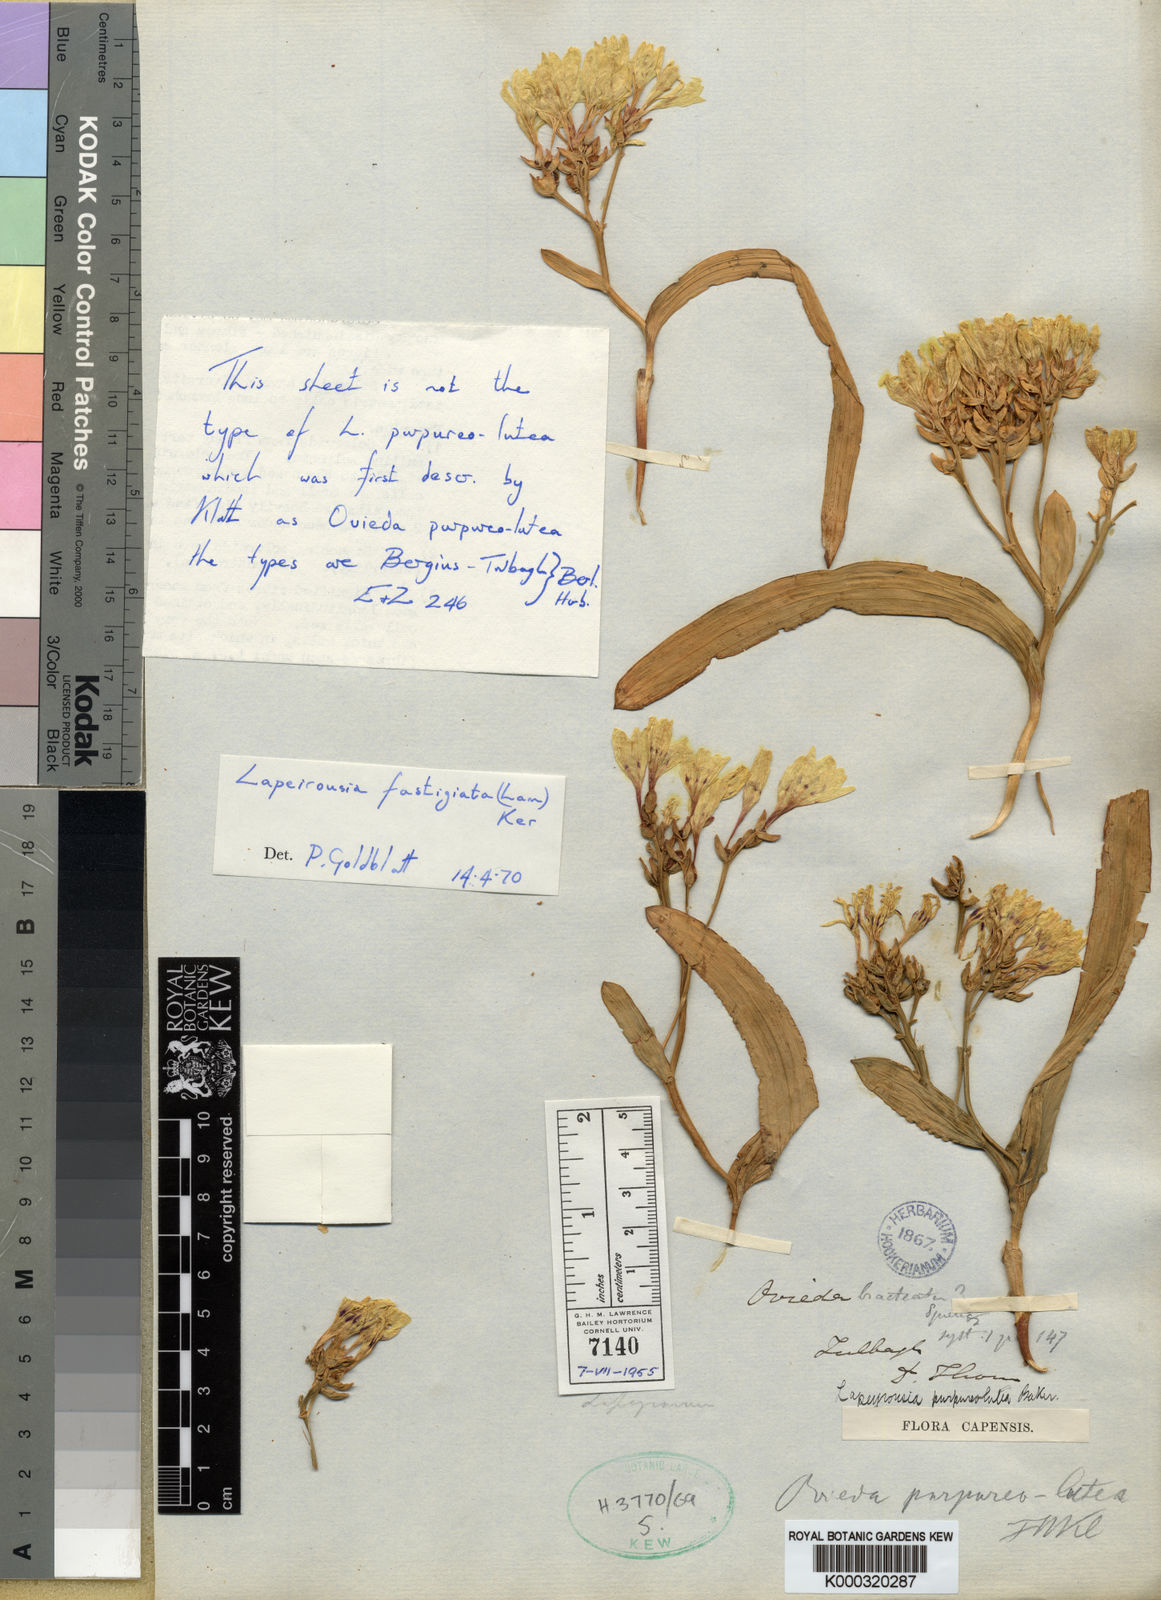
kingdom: Plantae
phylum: Tracheophyta
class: Liliopsida
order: Asparagales
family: Iridaceae
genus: Codonorhiza
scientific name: Codonorhiza fastigiata
